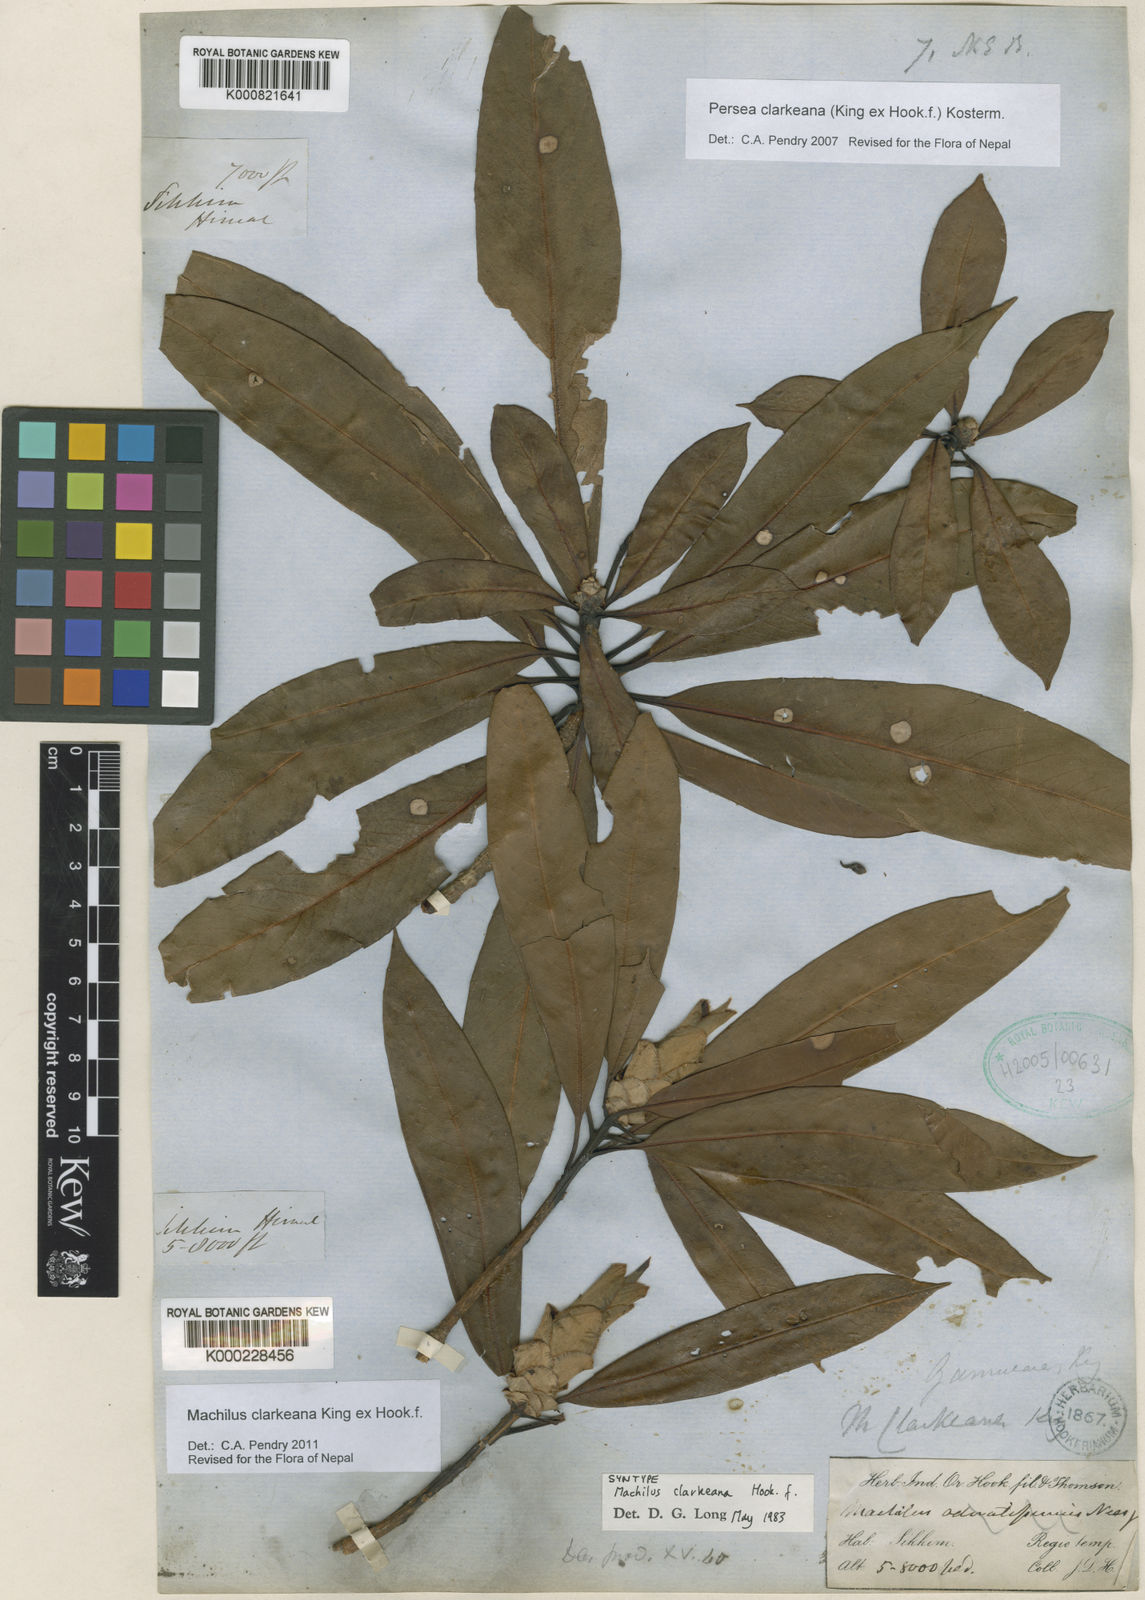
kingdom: Plantae
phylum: Tracheophyta
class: Magnoliopsida
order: Laurales
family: Lauraceae
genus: Machilus
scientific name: Machilus clarkeana
